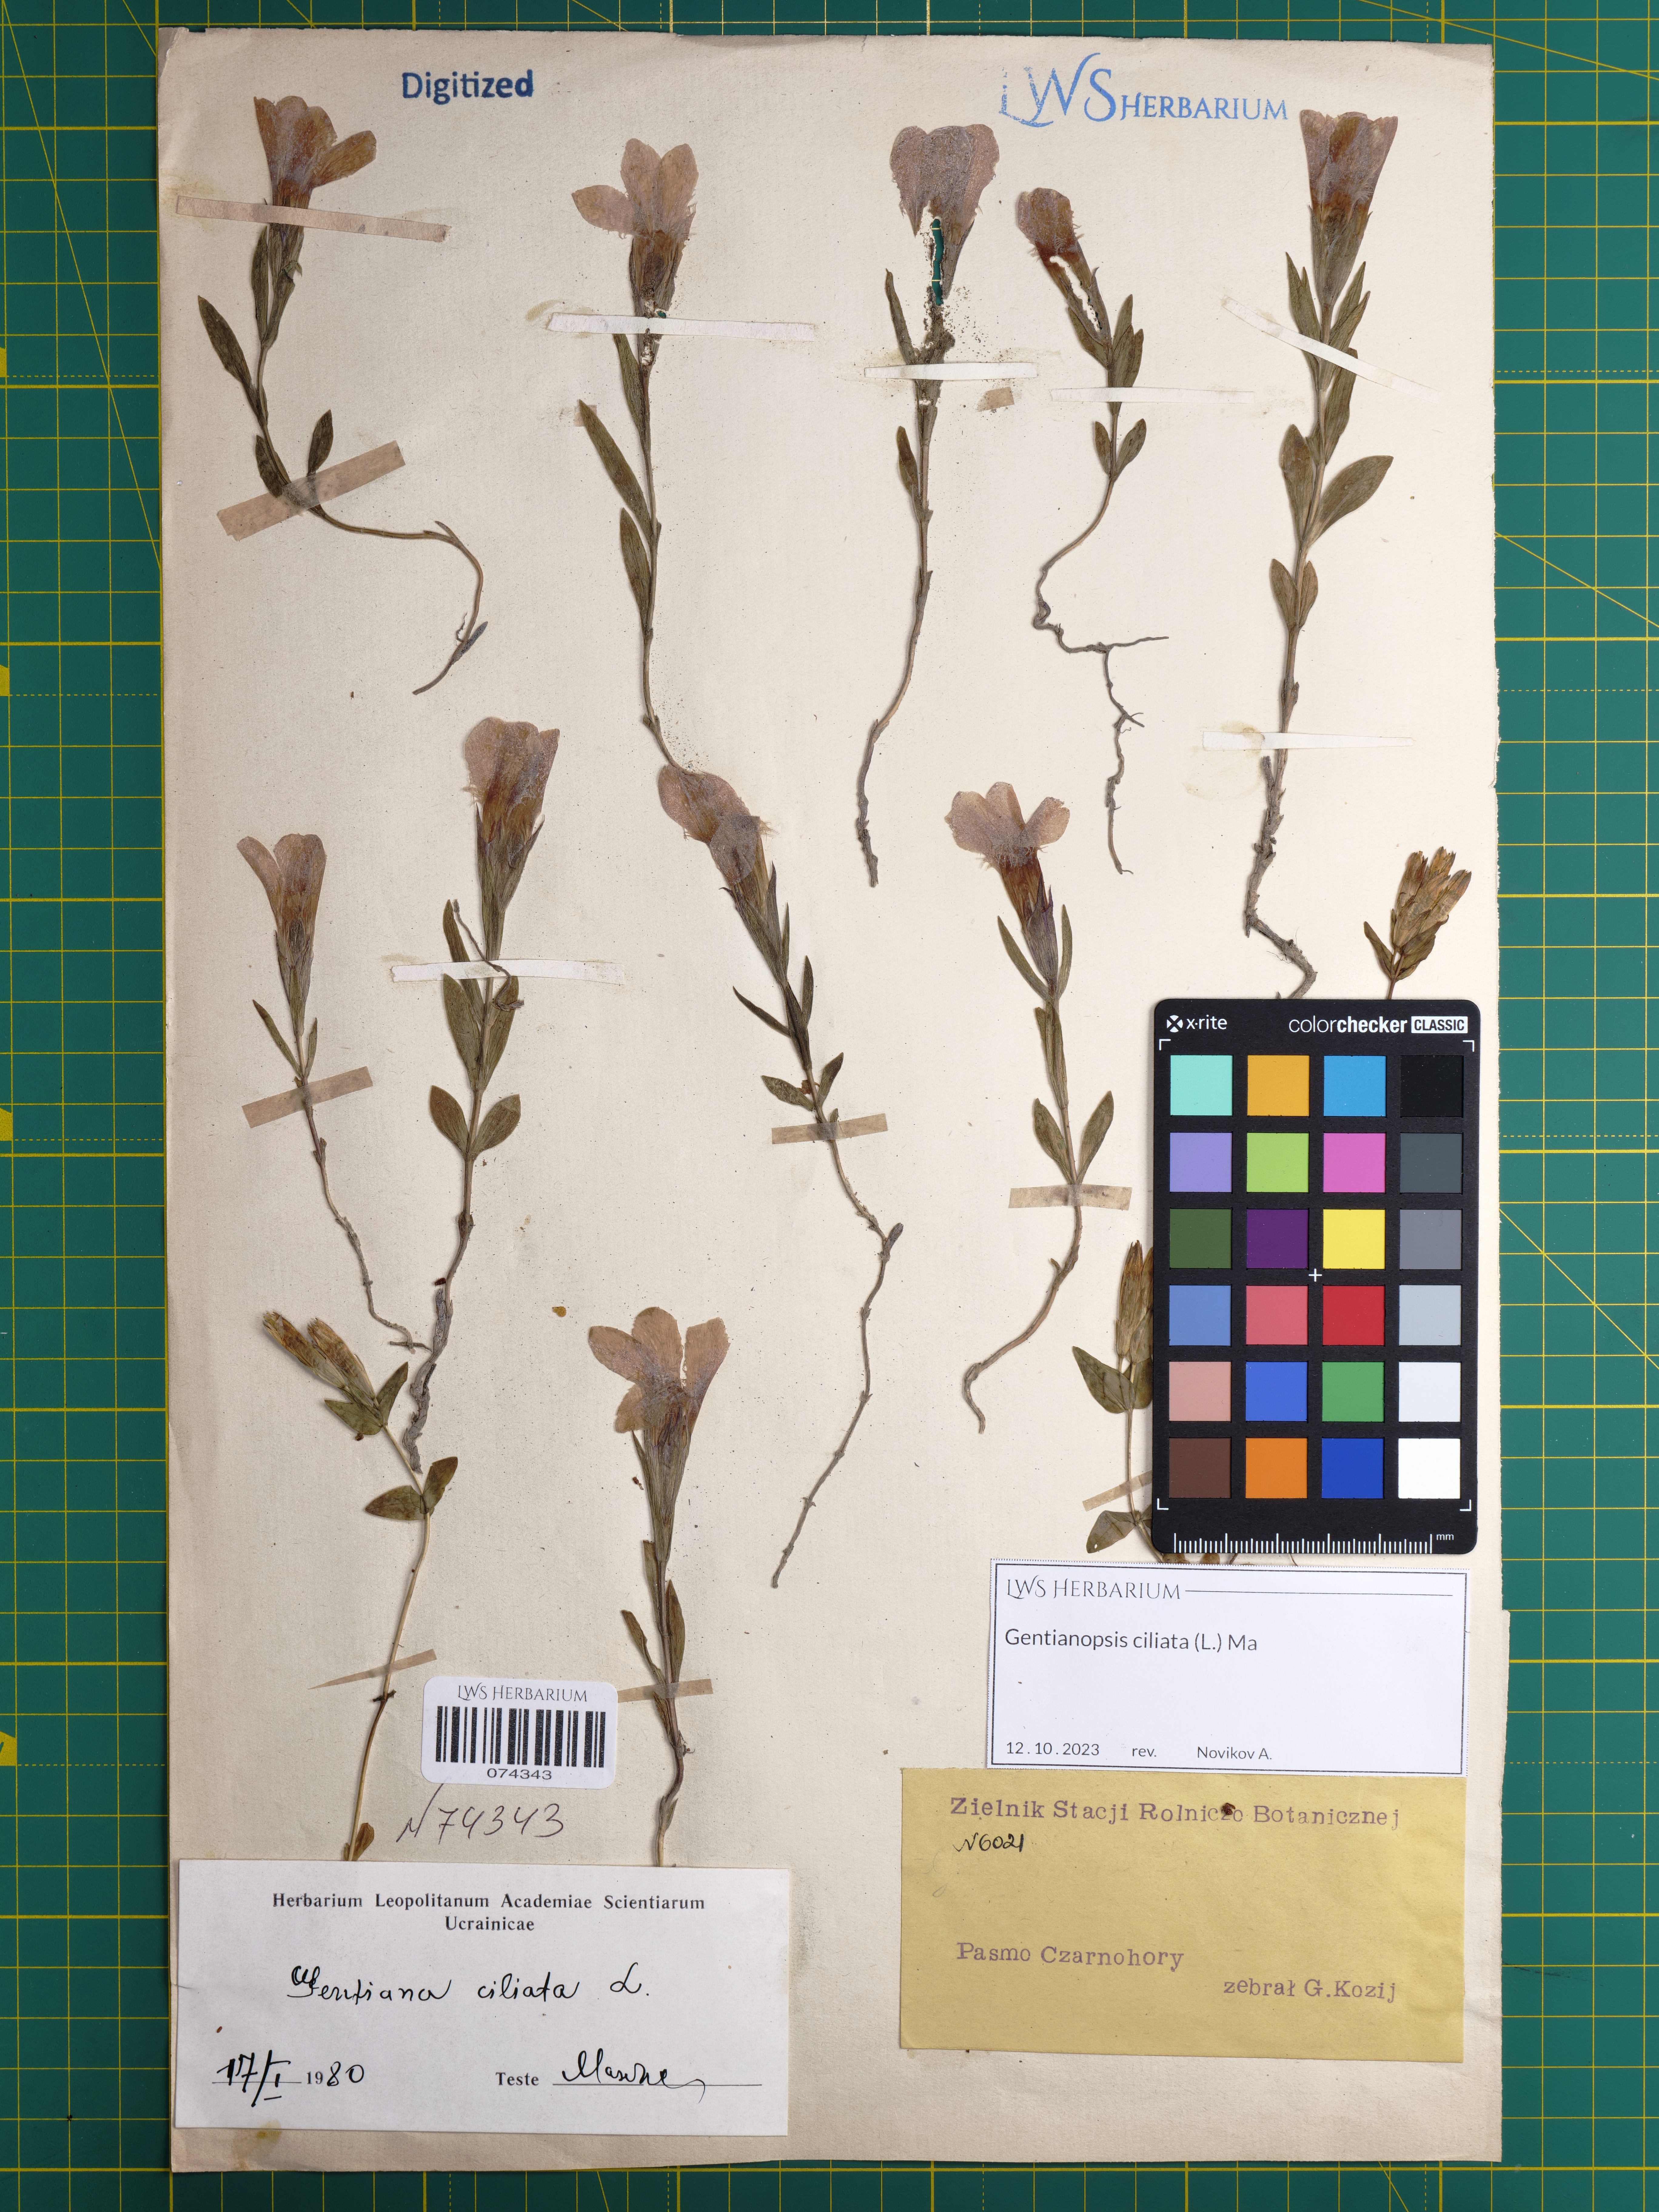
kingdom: Plantae
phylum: Tracheophyta
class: Magnoliopsida
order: Gentianales
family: Gentianaceae
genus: Gentianopsis
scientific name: Gentianopsis ciliata
